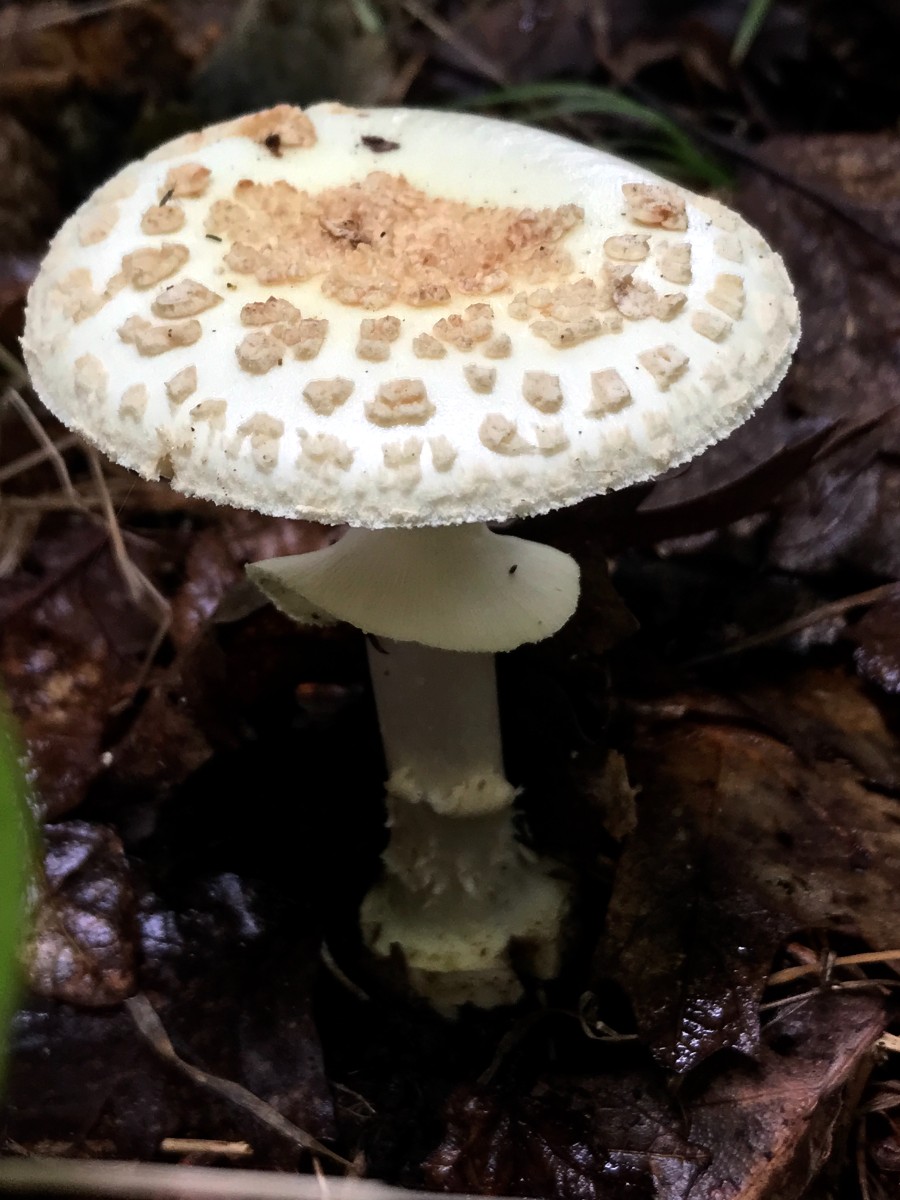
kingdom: Fungi
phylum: Basidiomycota
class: Agaricomycetes
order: Agaricales
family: Amanitaceae
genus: Amanita
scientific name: Amanita citrina
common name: kugleknoldet fluesvamp
